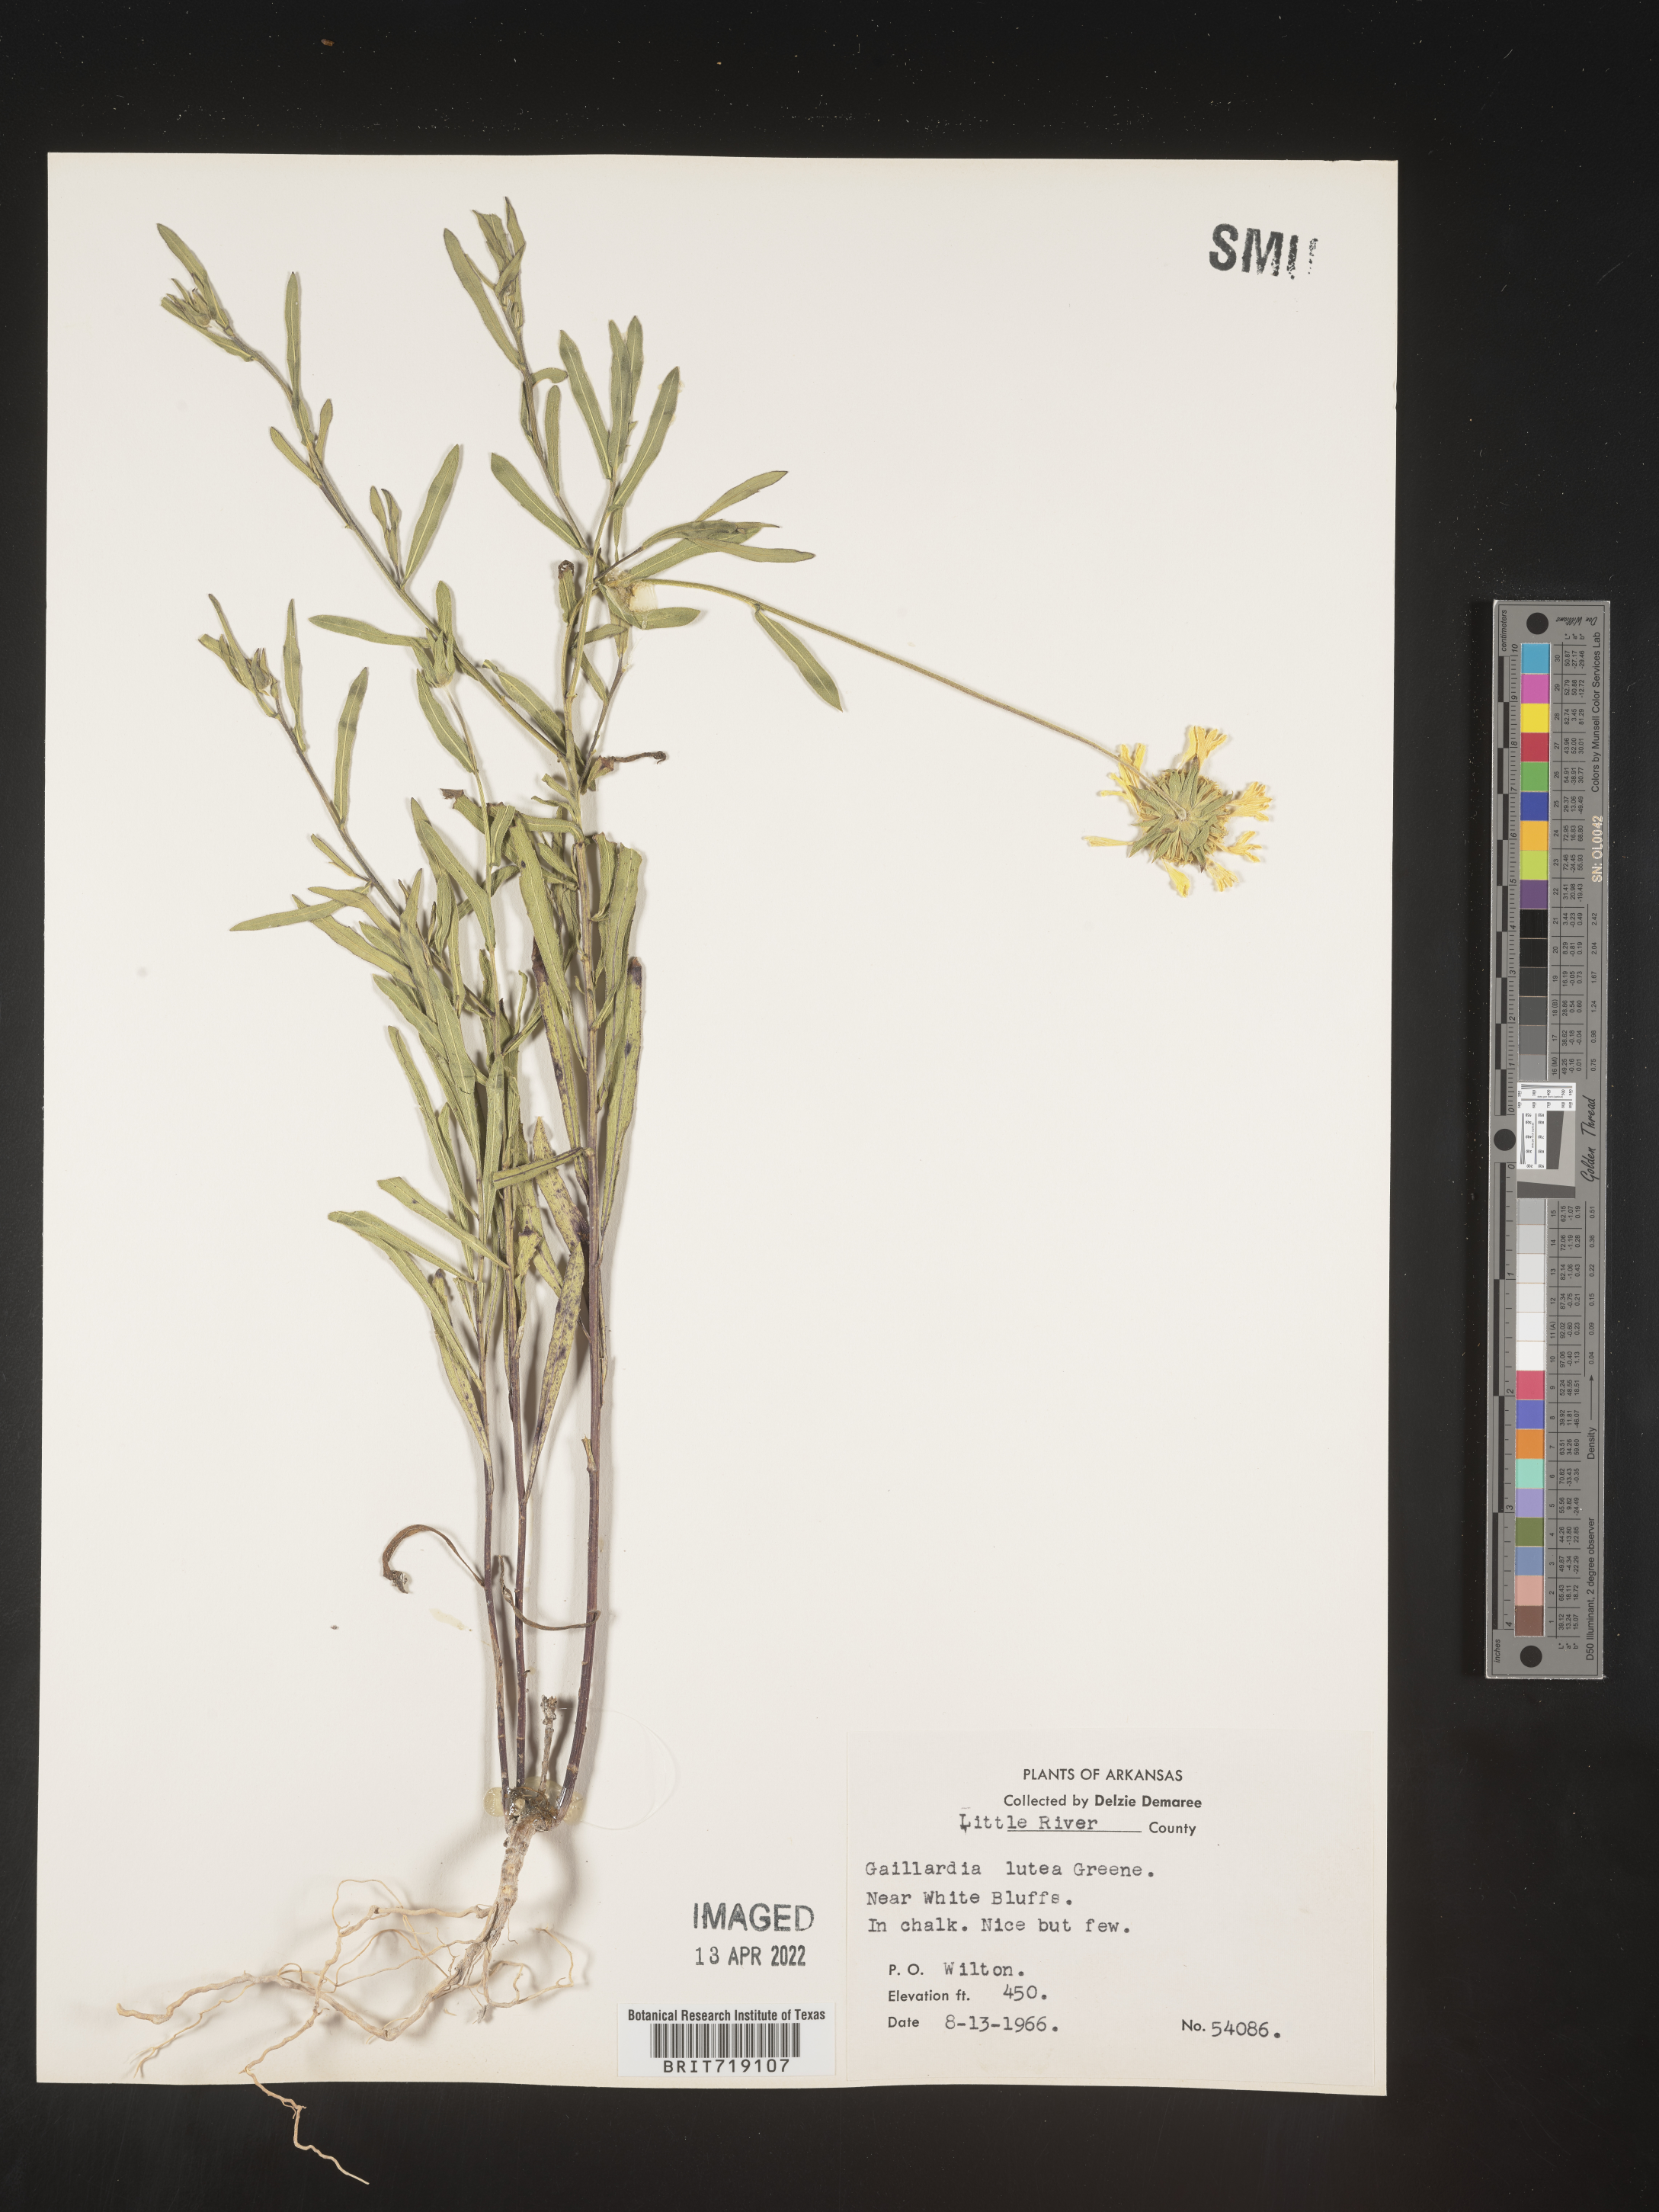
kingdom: Plantae
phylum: Tracheophyta
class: Magnoliopsida
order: Asterales
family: Asteraceae
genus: Gaillardia
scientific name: Gaillardia aestivalis
